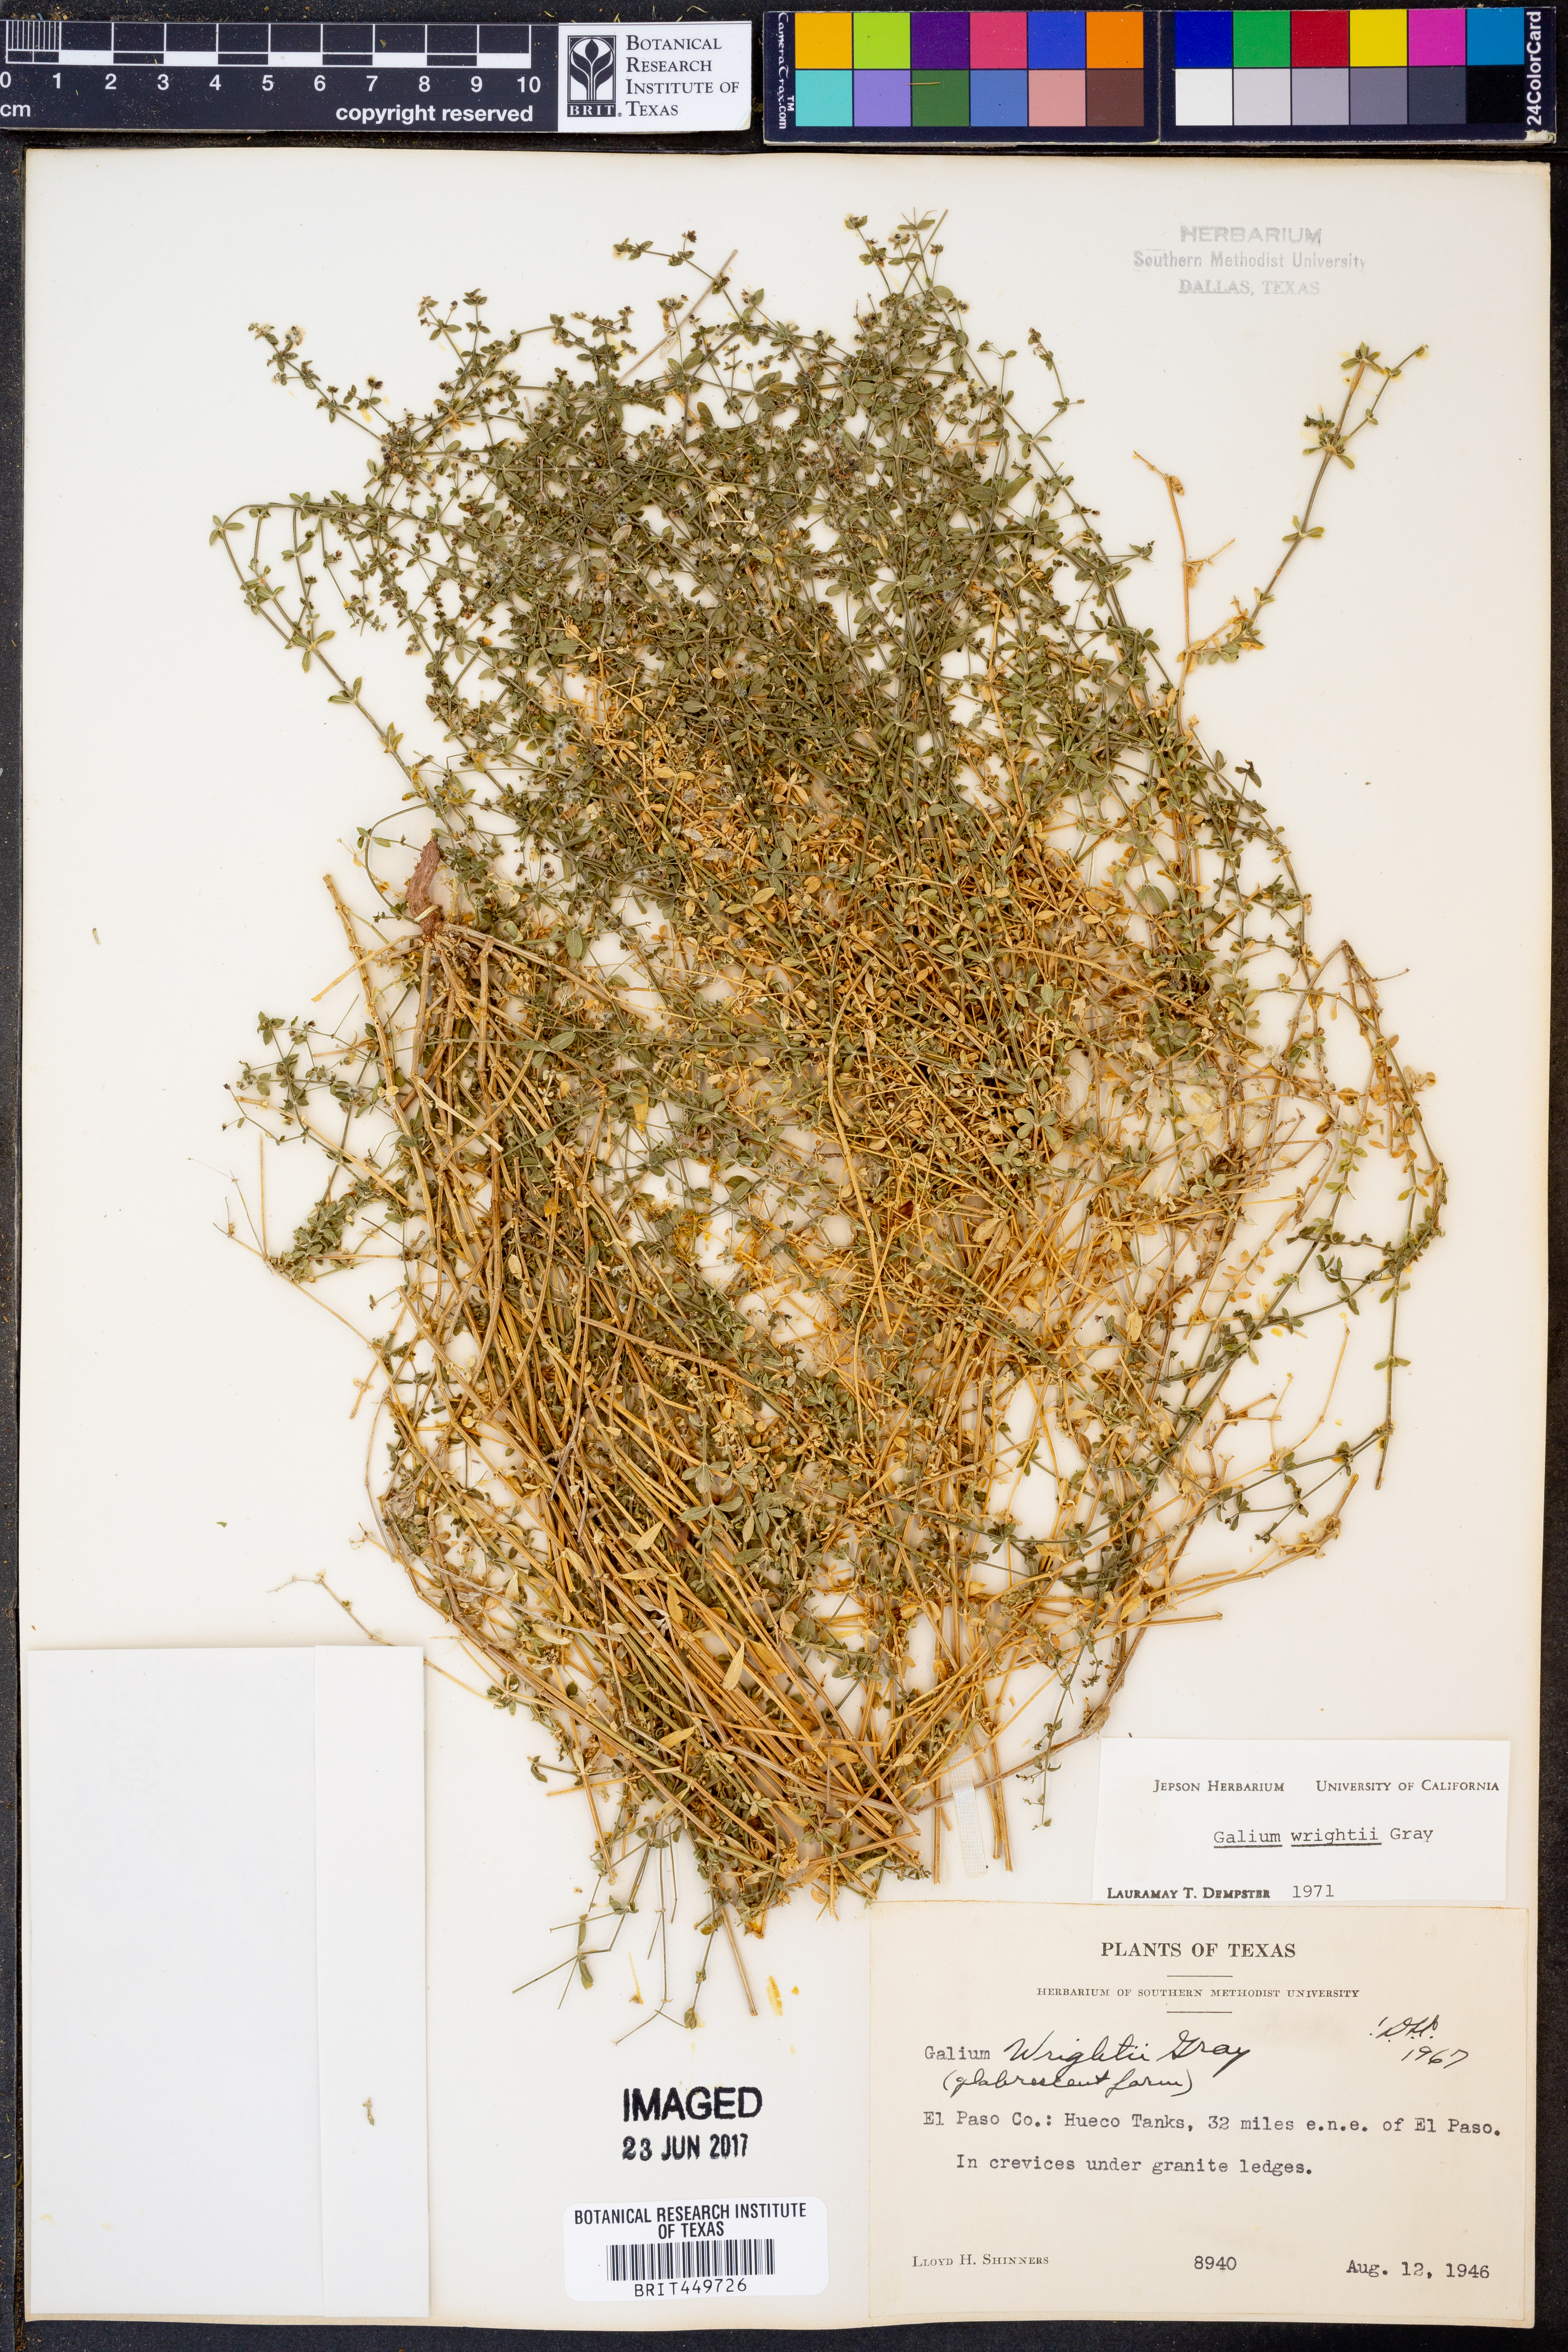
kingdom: Plantae
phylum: Tracheophyta
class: Magnoliopsida
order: Gentianales
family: Rubiaceae
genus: Galium
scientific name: Galium wrightii
